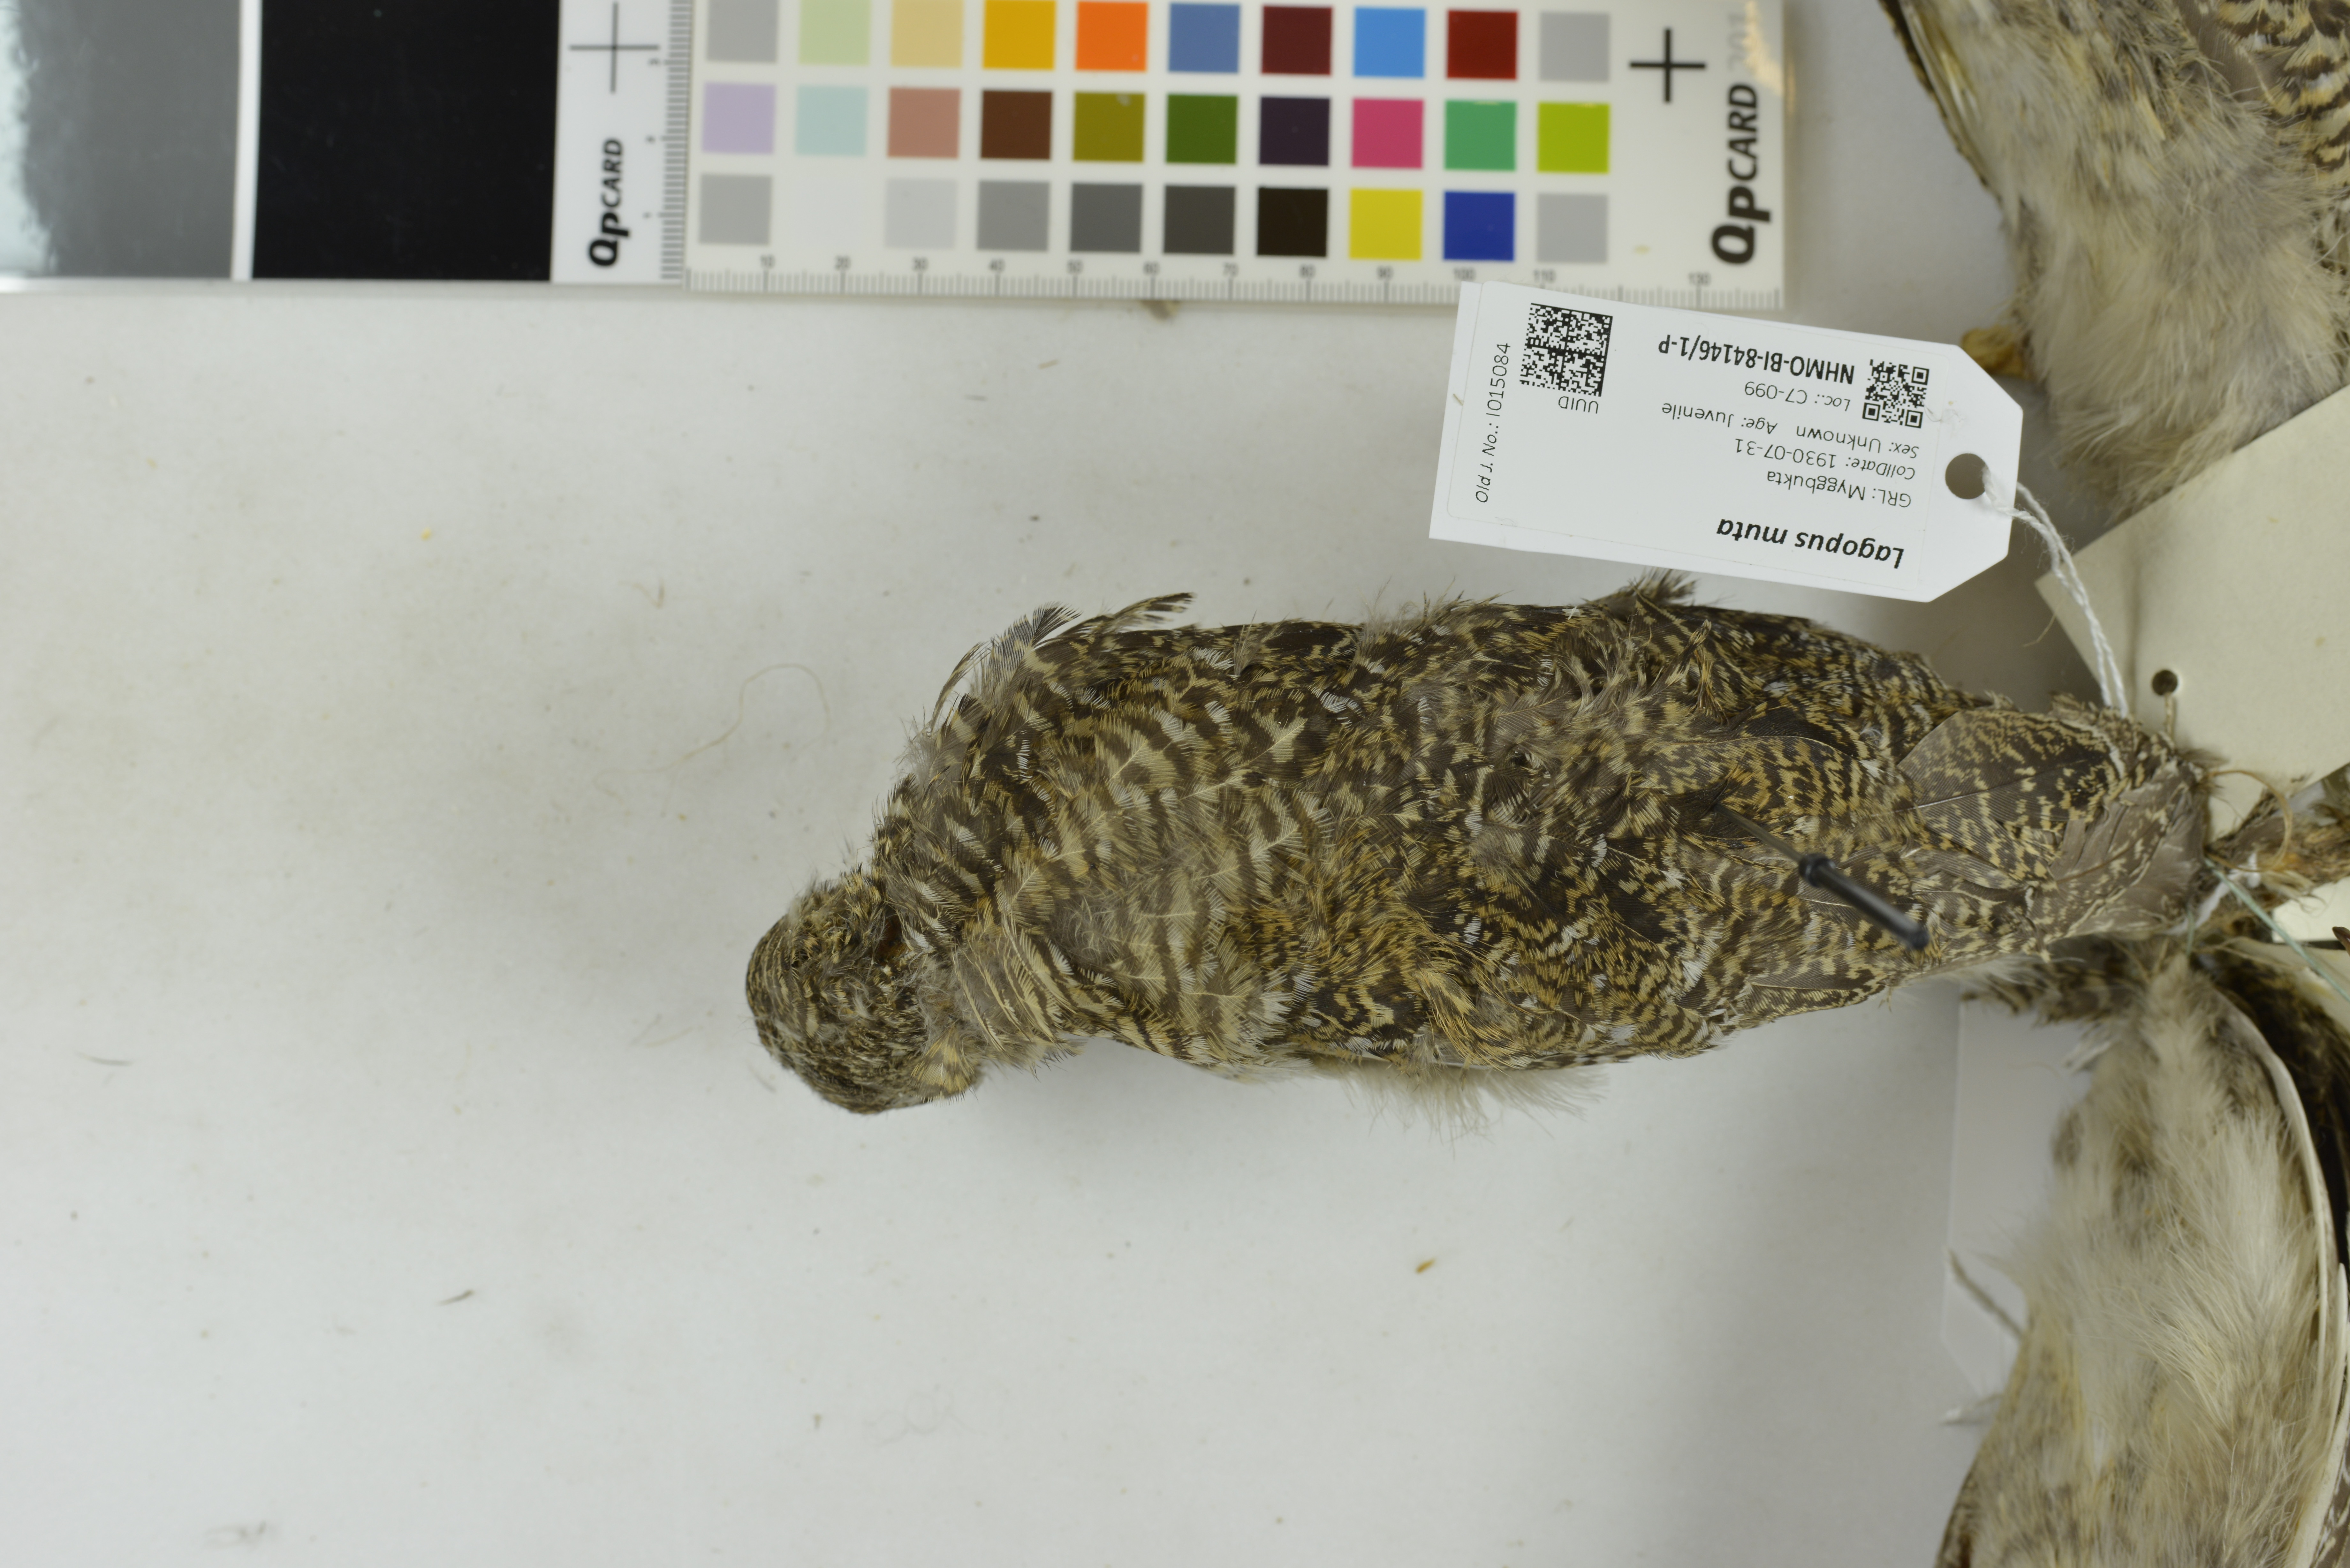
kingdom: Animalia
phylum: Chordata
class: Aves
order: Galliformes
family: Phasianidae
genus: Lagopus
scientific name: Lagopus muta
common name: Rock ptarmigan
